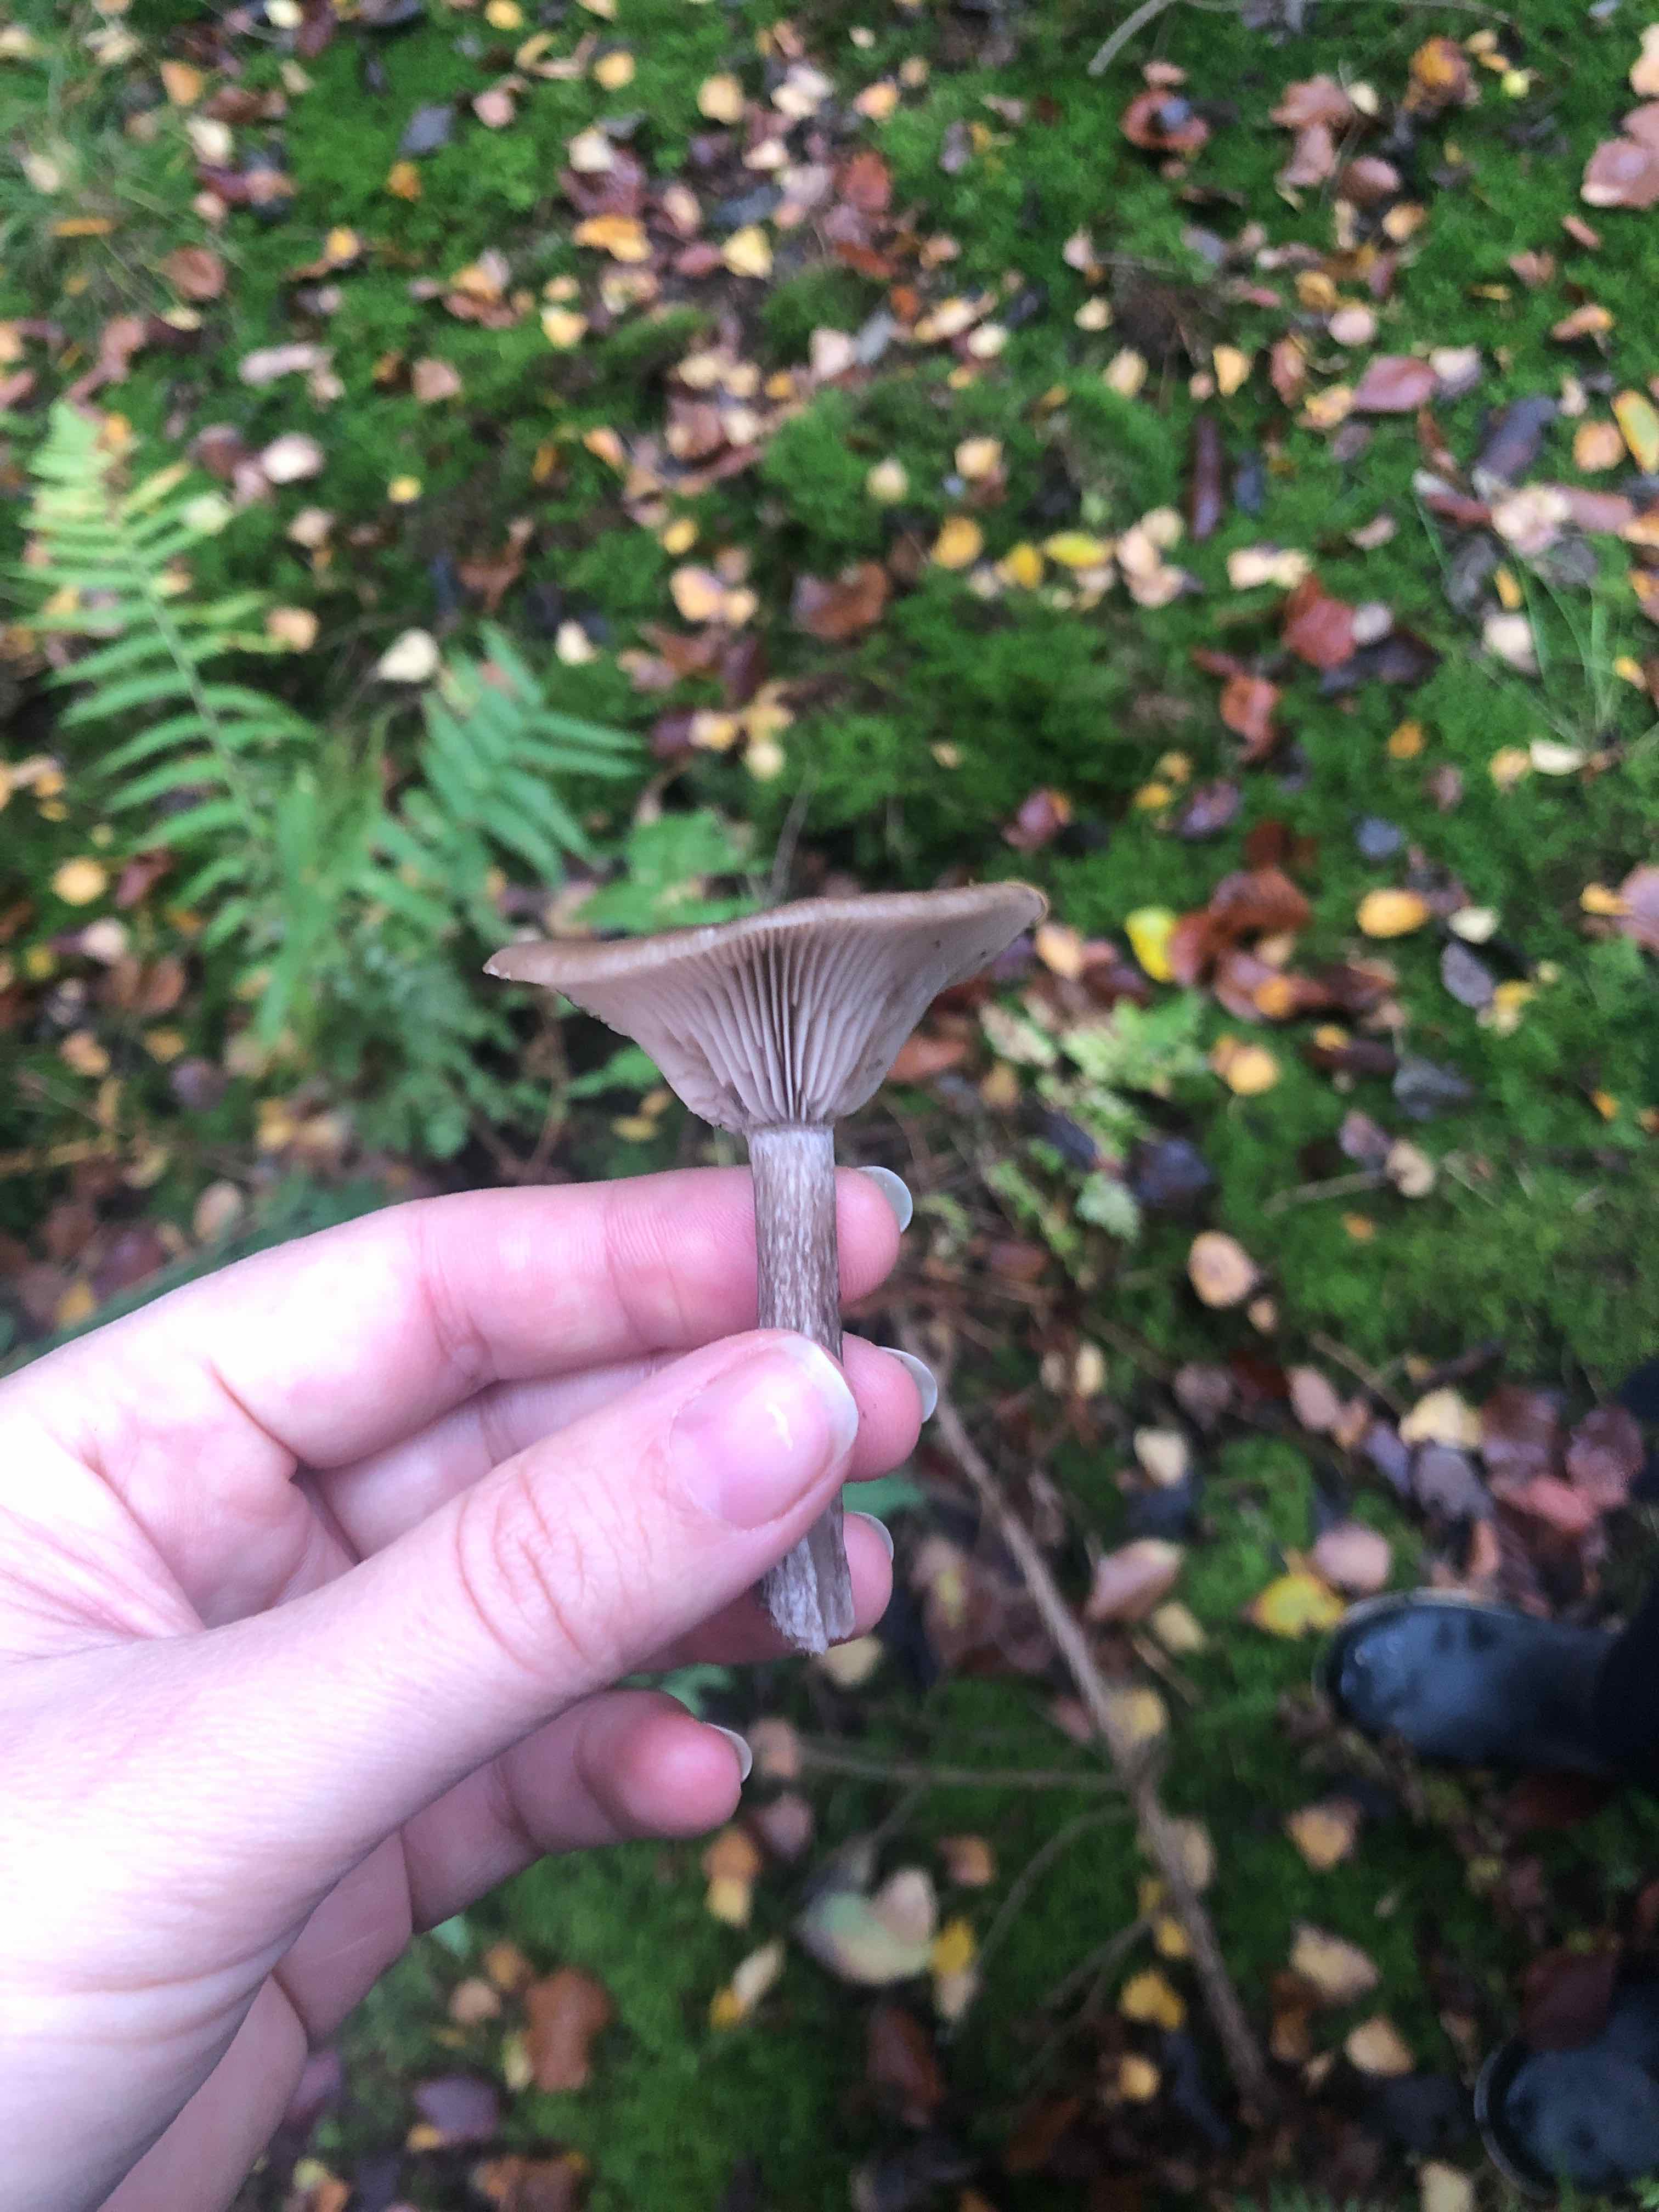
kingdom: Fungi
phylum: Basidiomycota
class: Agaricomycetes
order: Agaricales
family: Pseudoclitocybaceae
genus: Pseudoclitocybe
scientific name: Pseudoclitocybe cyathiformis
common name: almindelig bægertragthat
